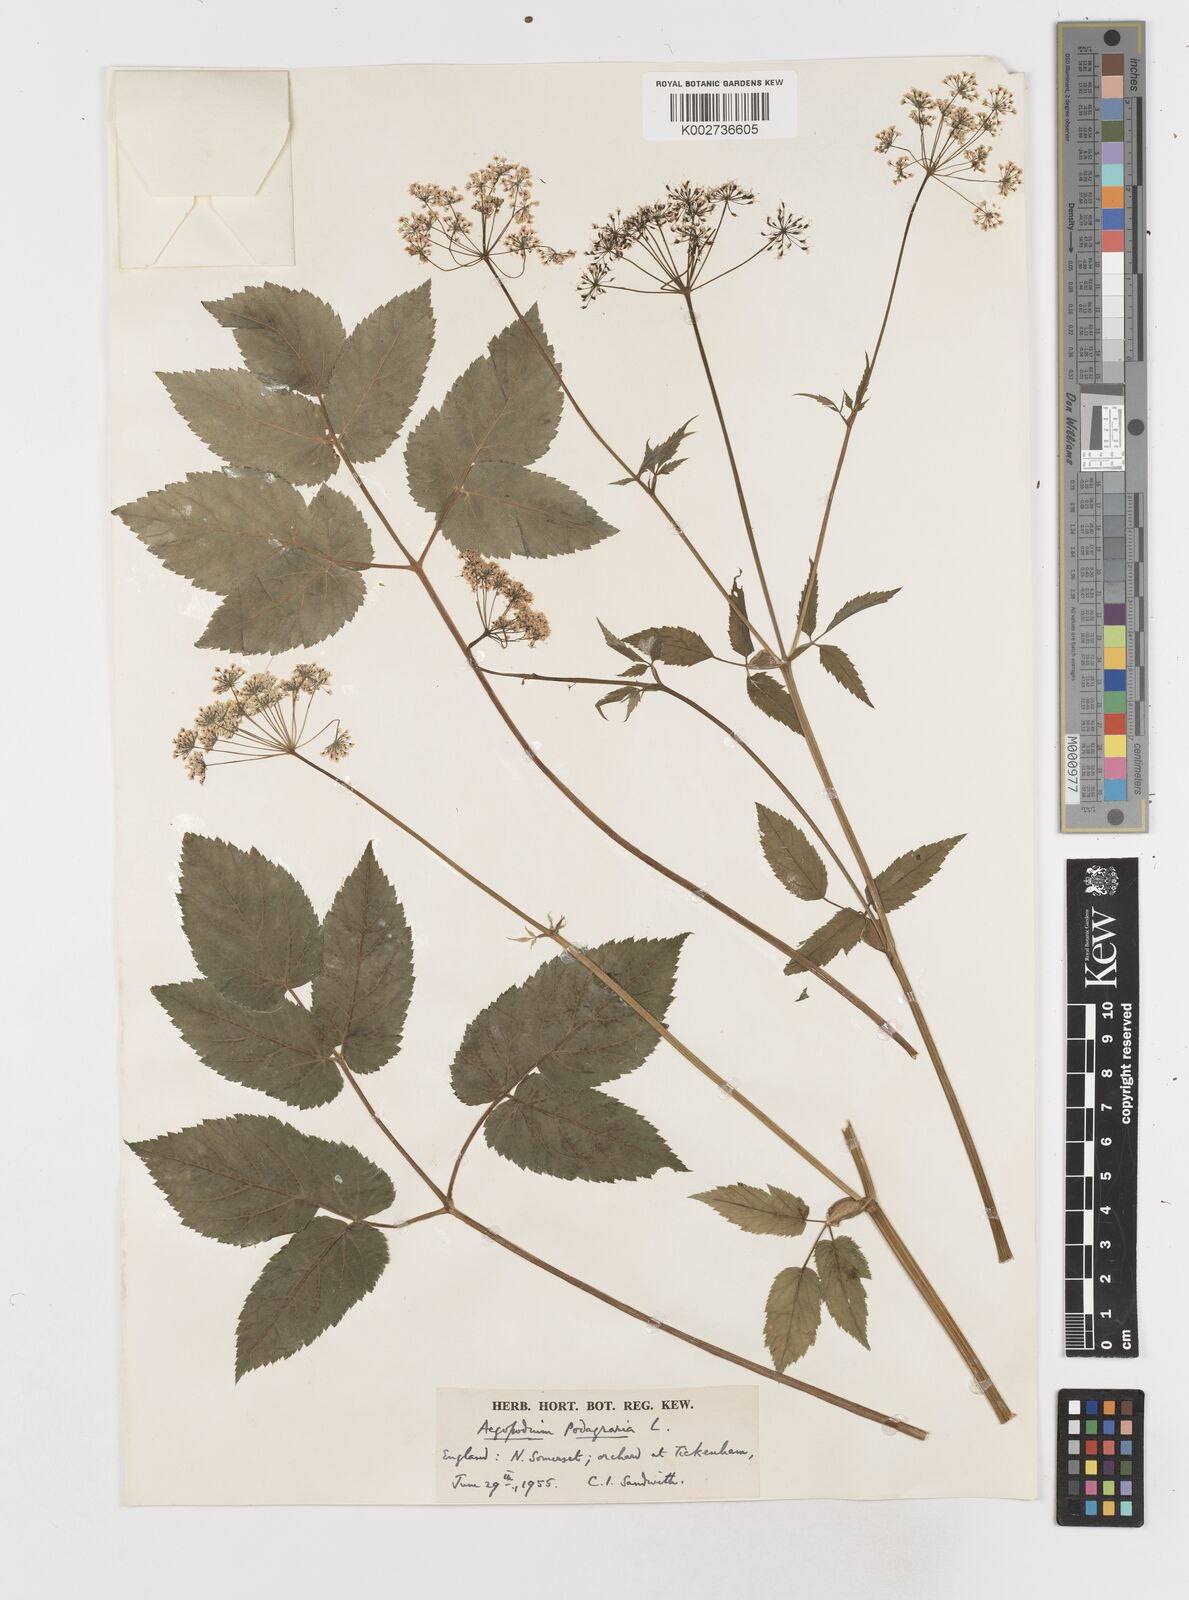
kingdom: Plantae
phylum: Tracheophyta
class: Magnoliopsida
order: Apiales
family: Apiaceae
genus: Aegopodium
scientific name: Aegopodium podagraria
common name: Ground-elder
